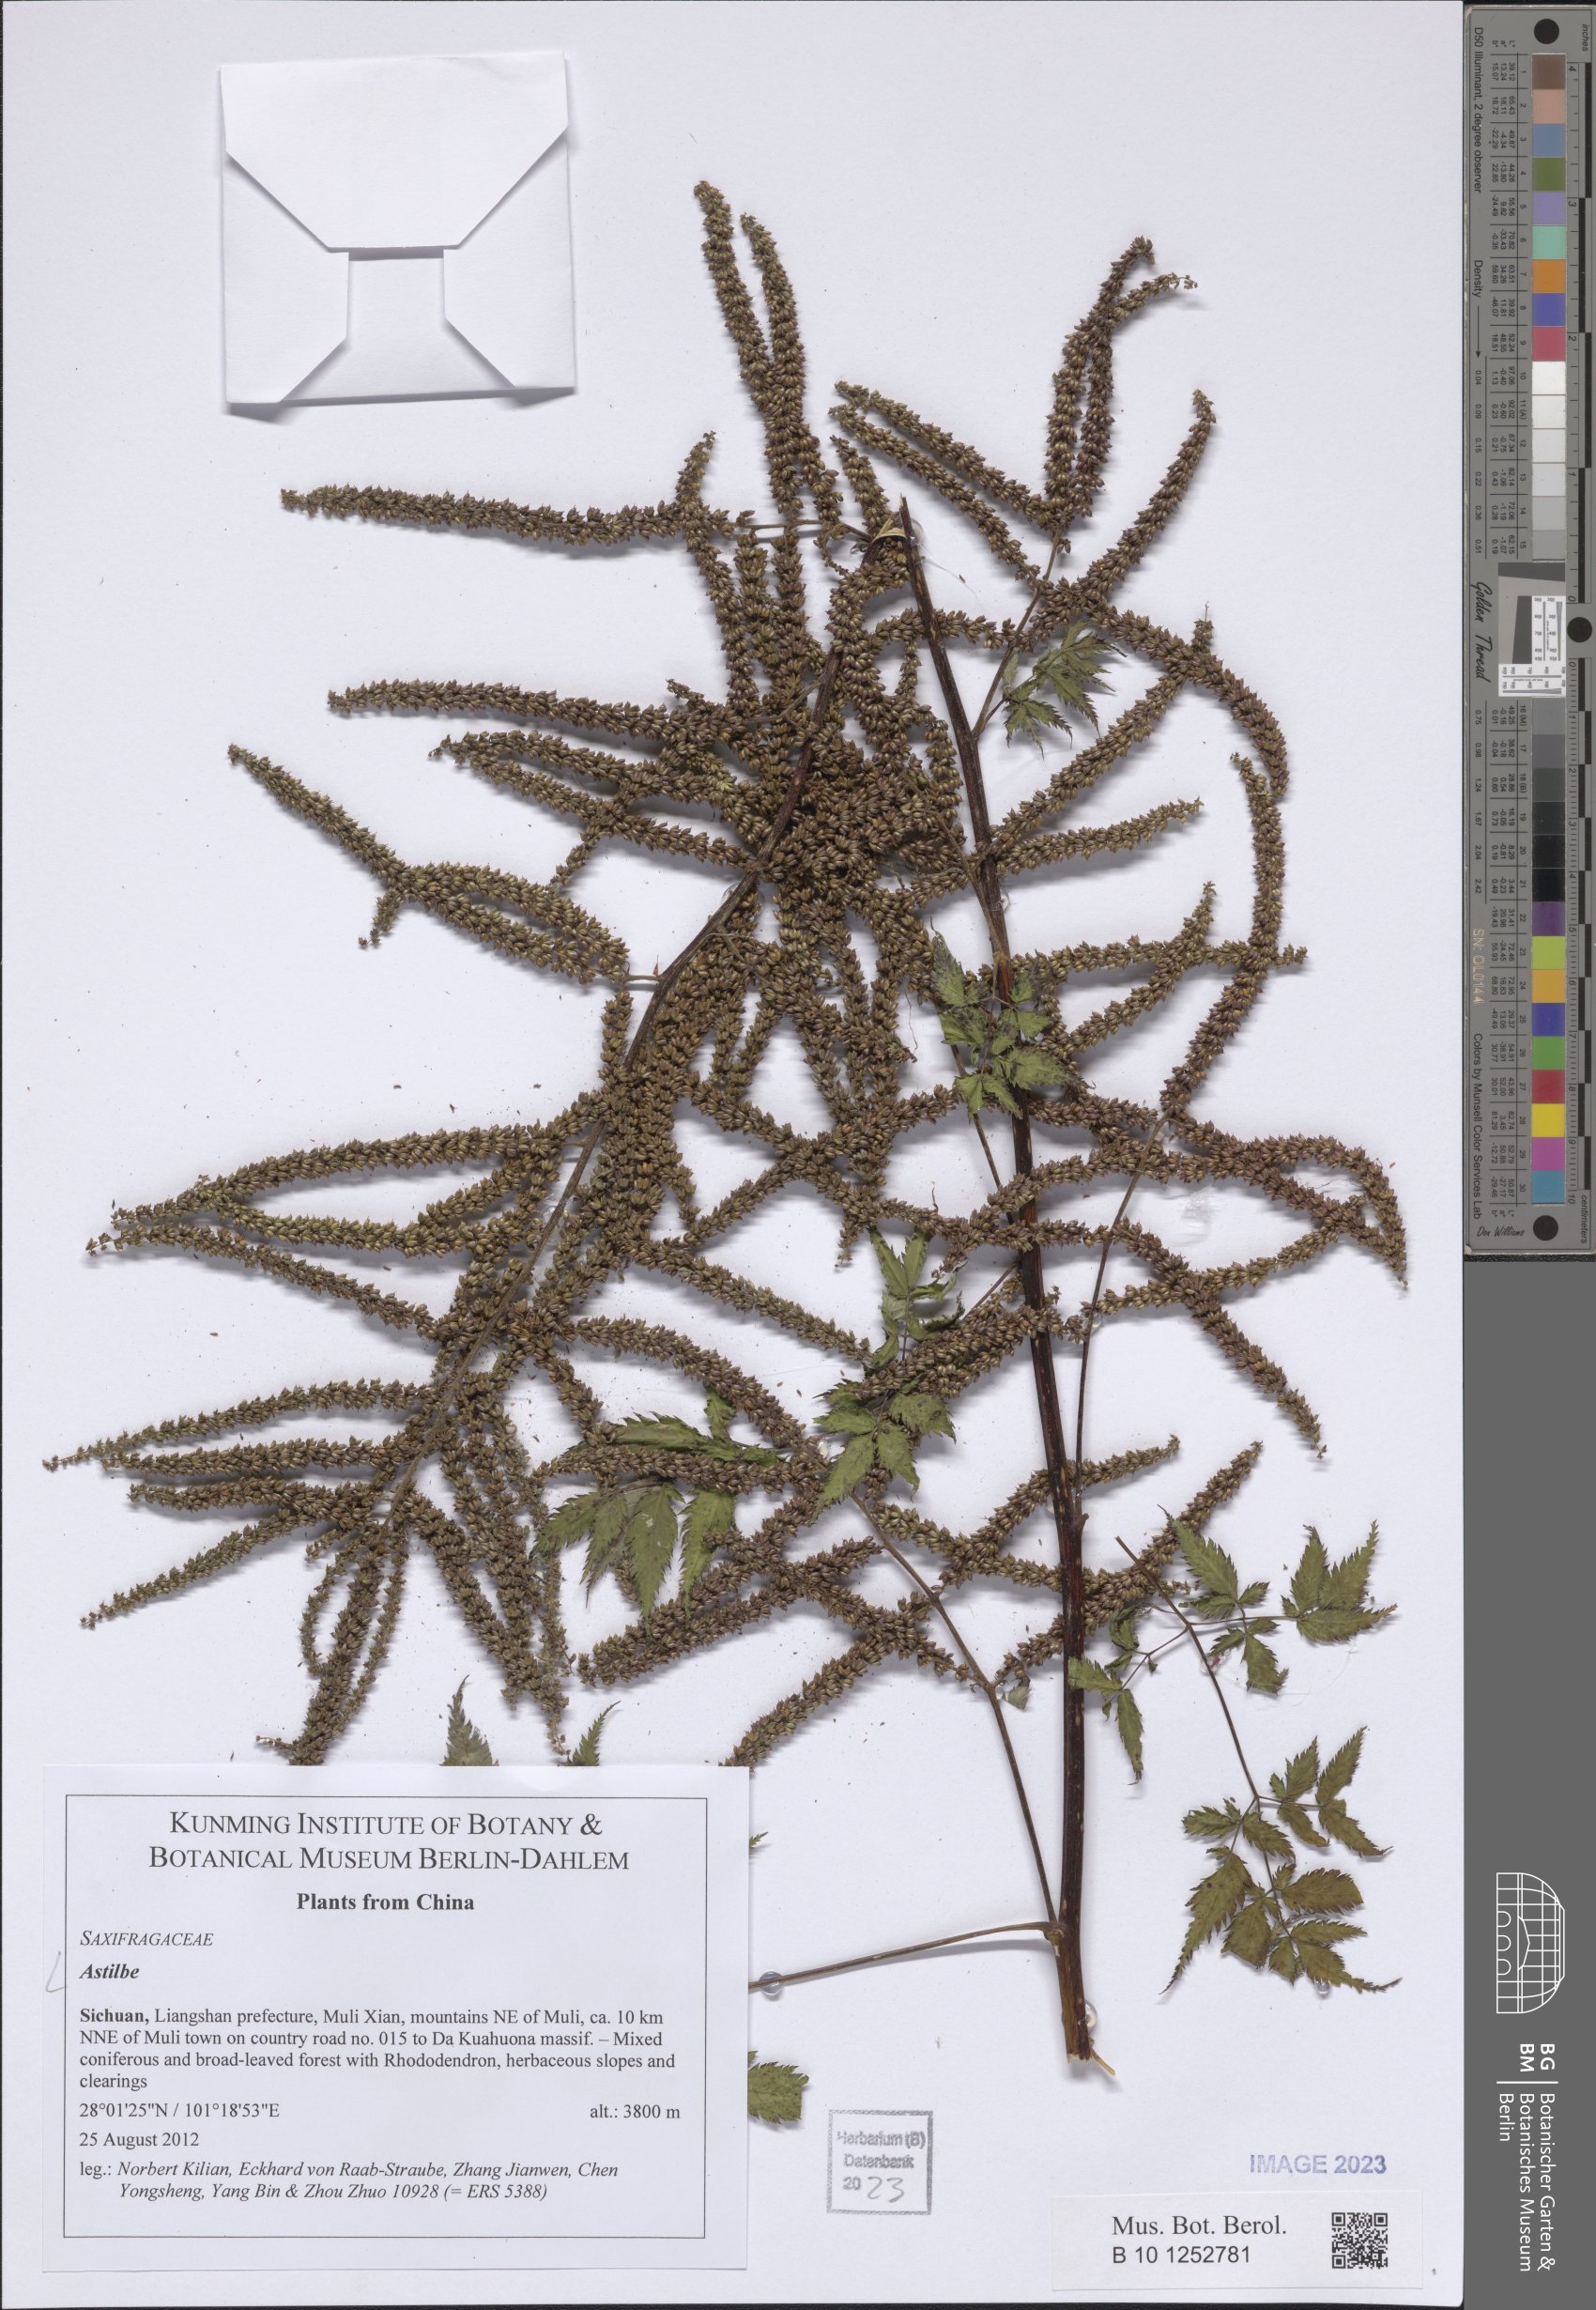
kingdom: Plantae
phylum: Tracheophyta
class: Magnoliopsida
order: Saxifragales
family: Saxifragaceae
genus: Astilbe
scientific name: Astilbe
